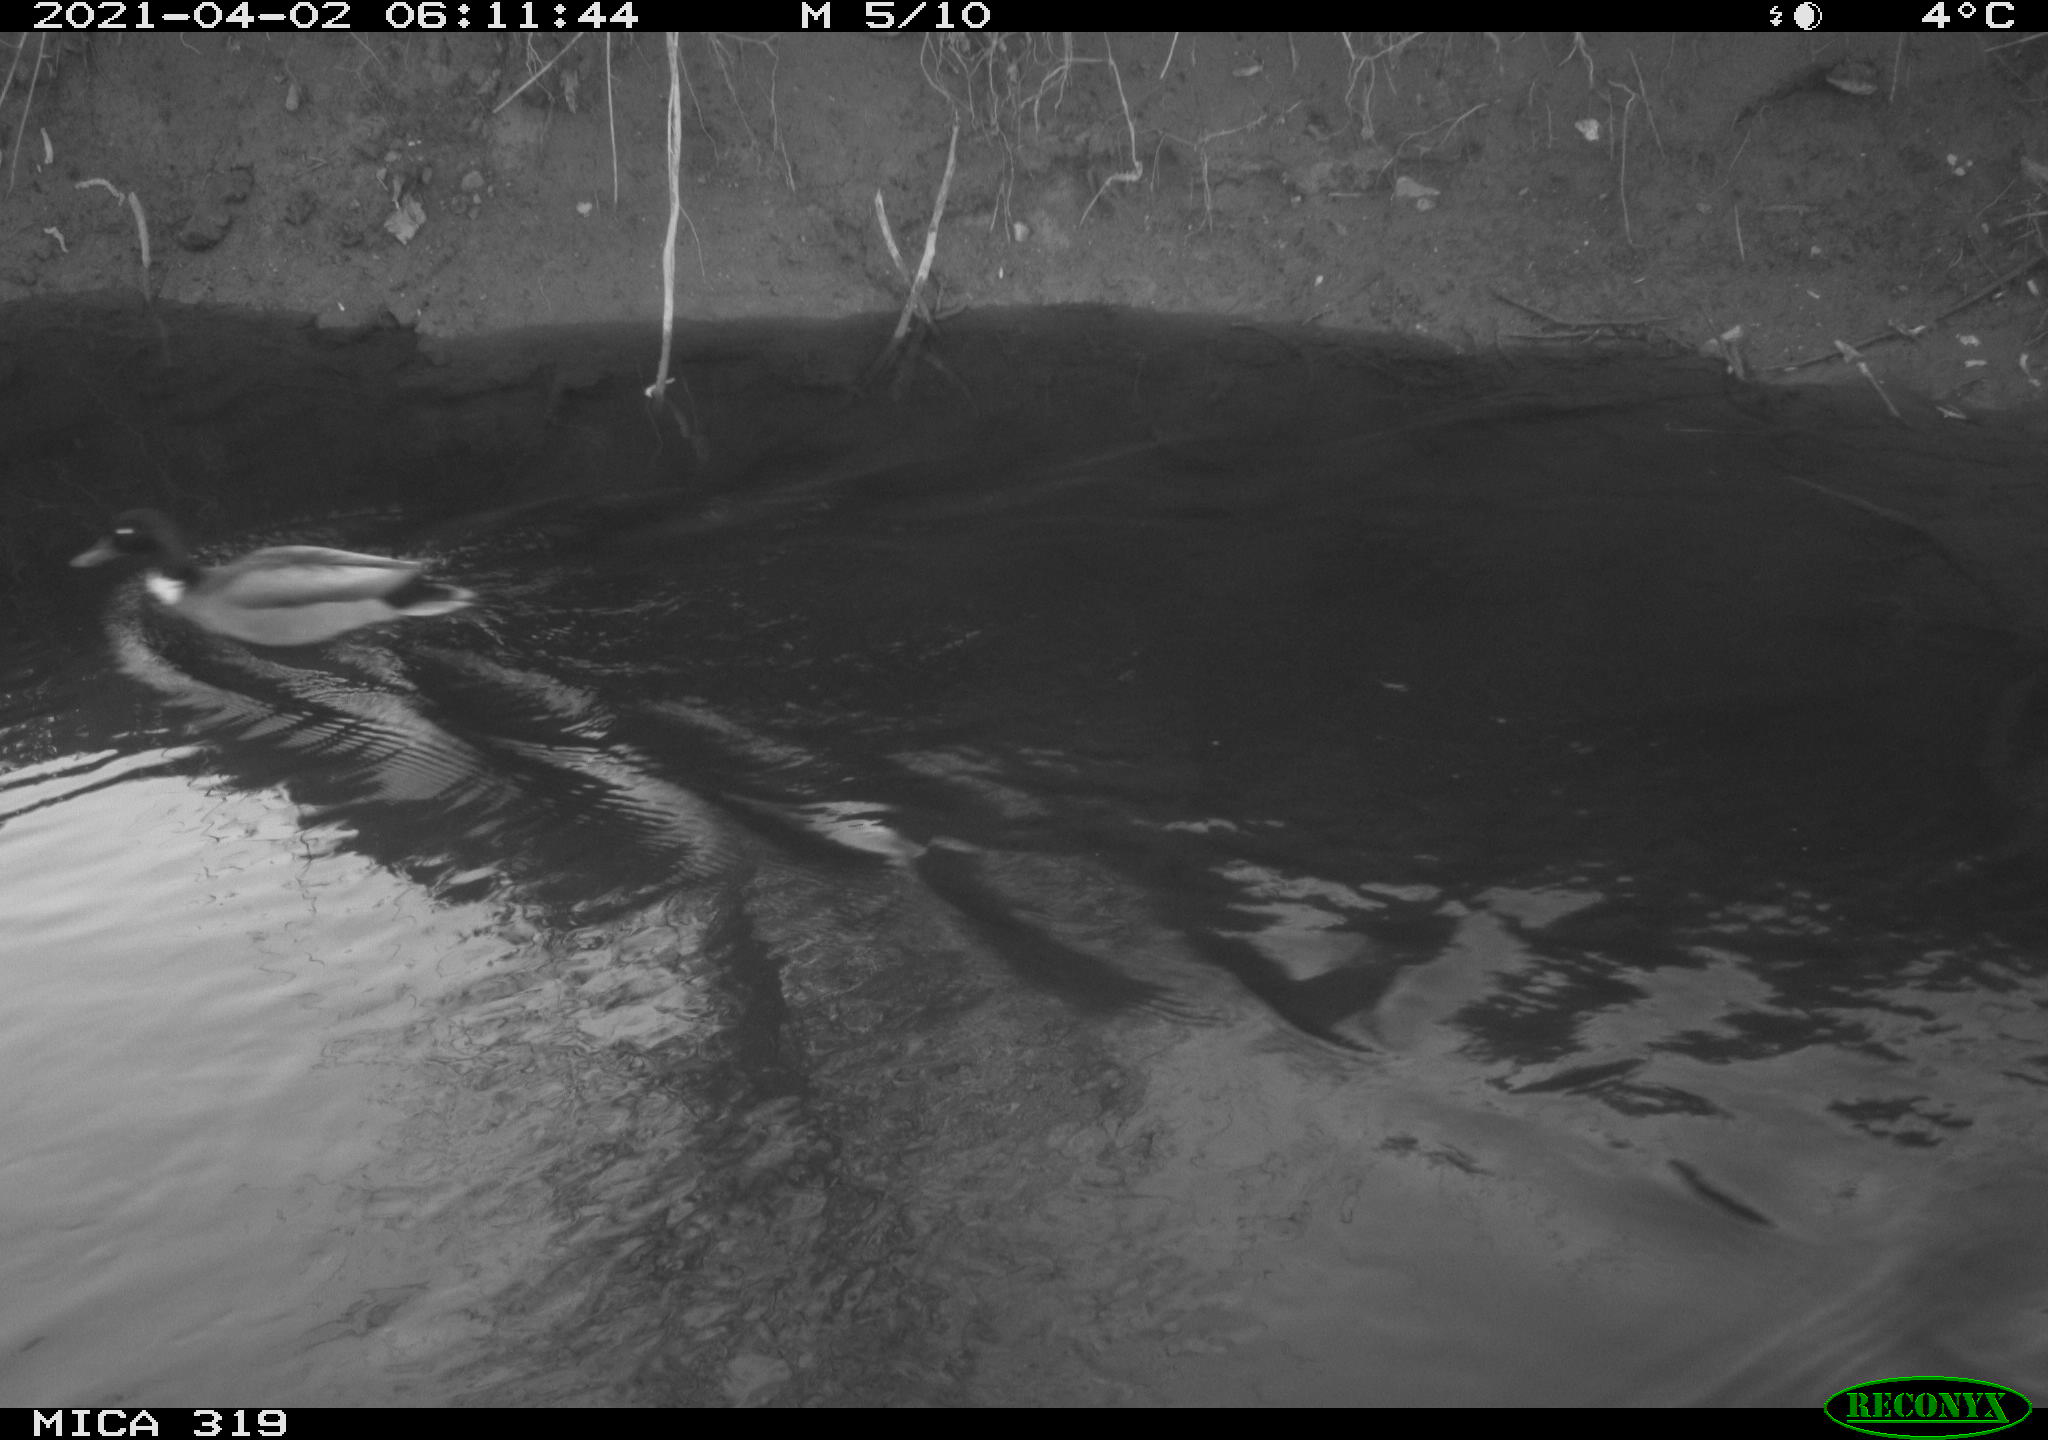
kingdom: Animalia
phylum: Chordata
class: Aves
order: Gruiformes
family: Rallidae
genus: Gallinula
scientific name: Gallinula chloropus
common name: Common moorhen
